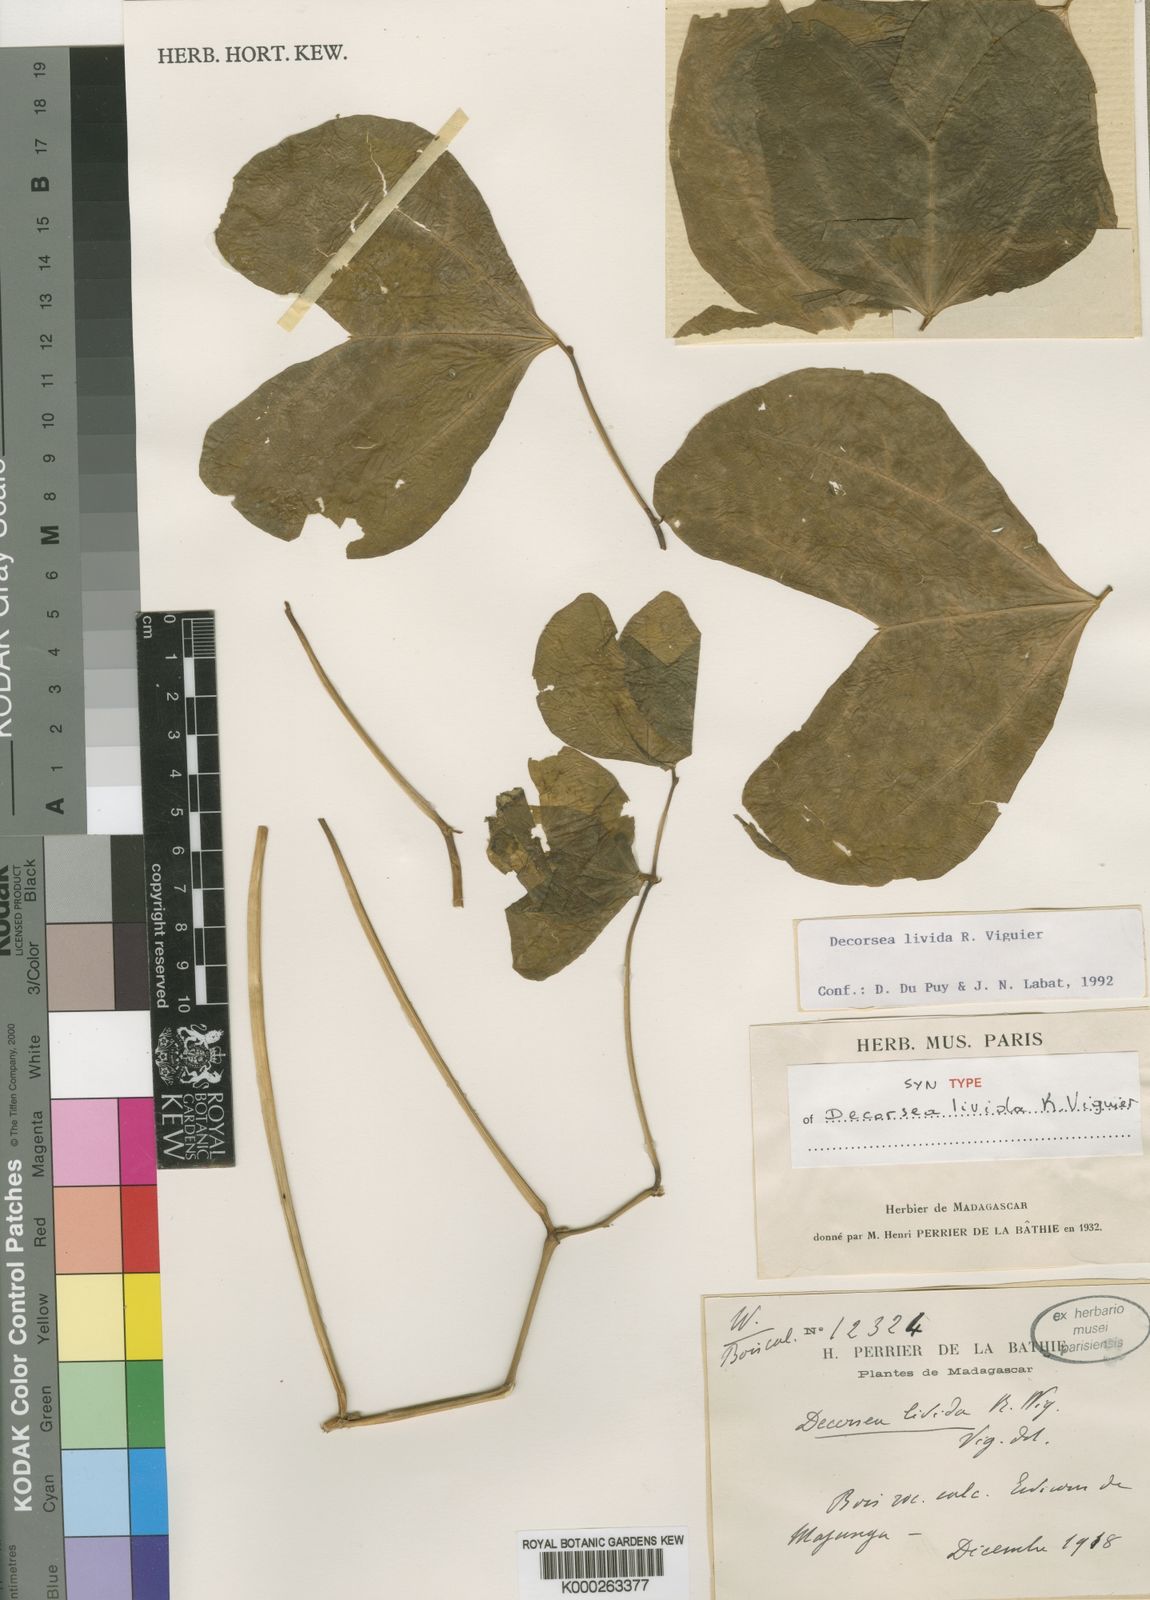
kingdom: Plantae
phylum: Tracheophyta
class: Magnoliopsida
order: Fabales
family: Fabaceae
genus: Decorsea
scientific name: Decorsea livida
